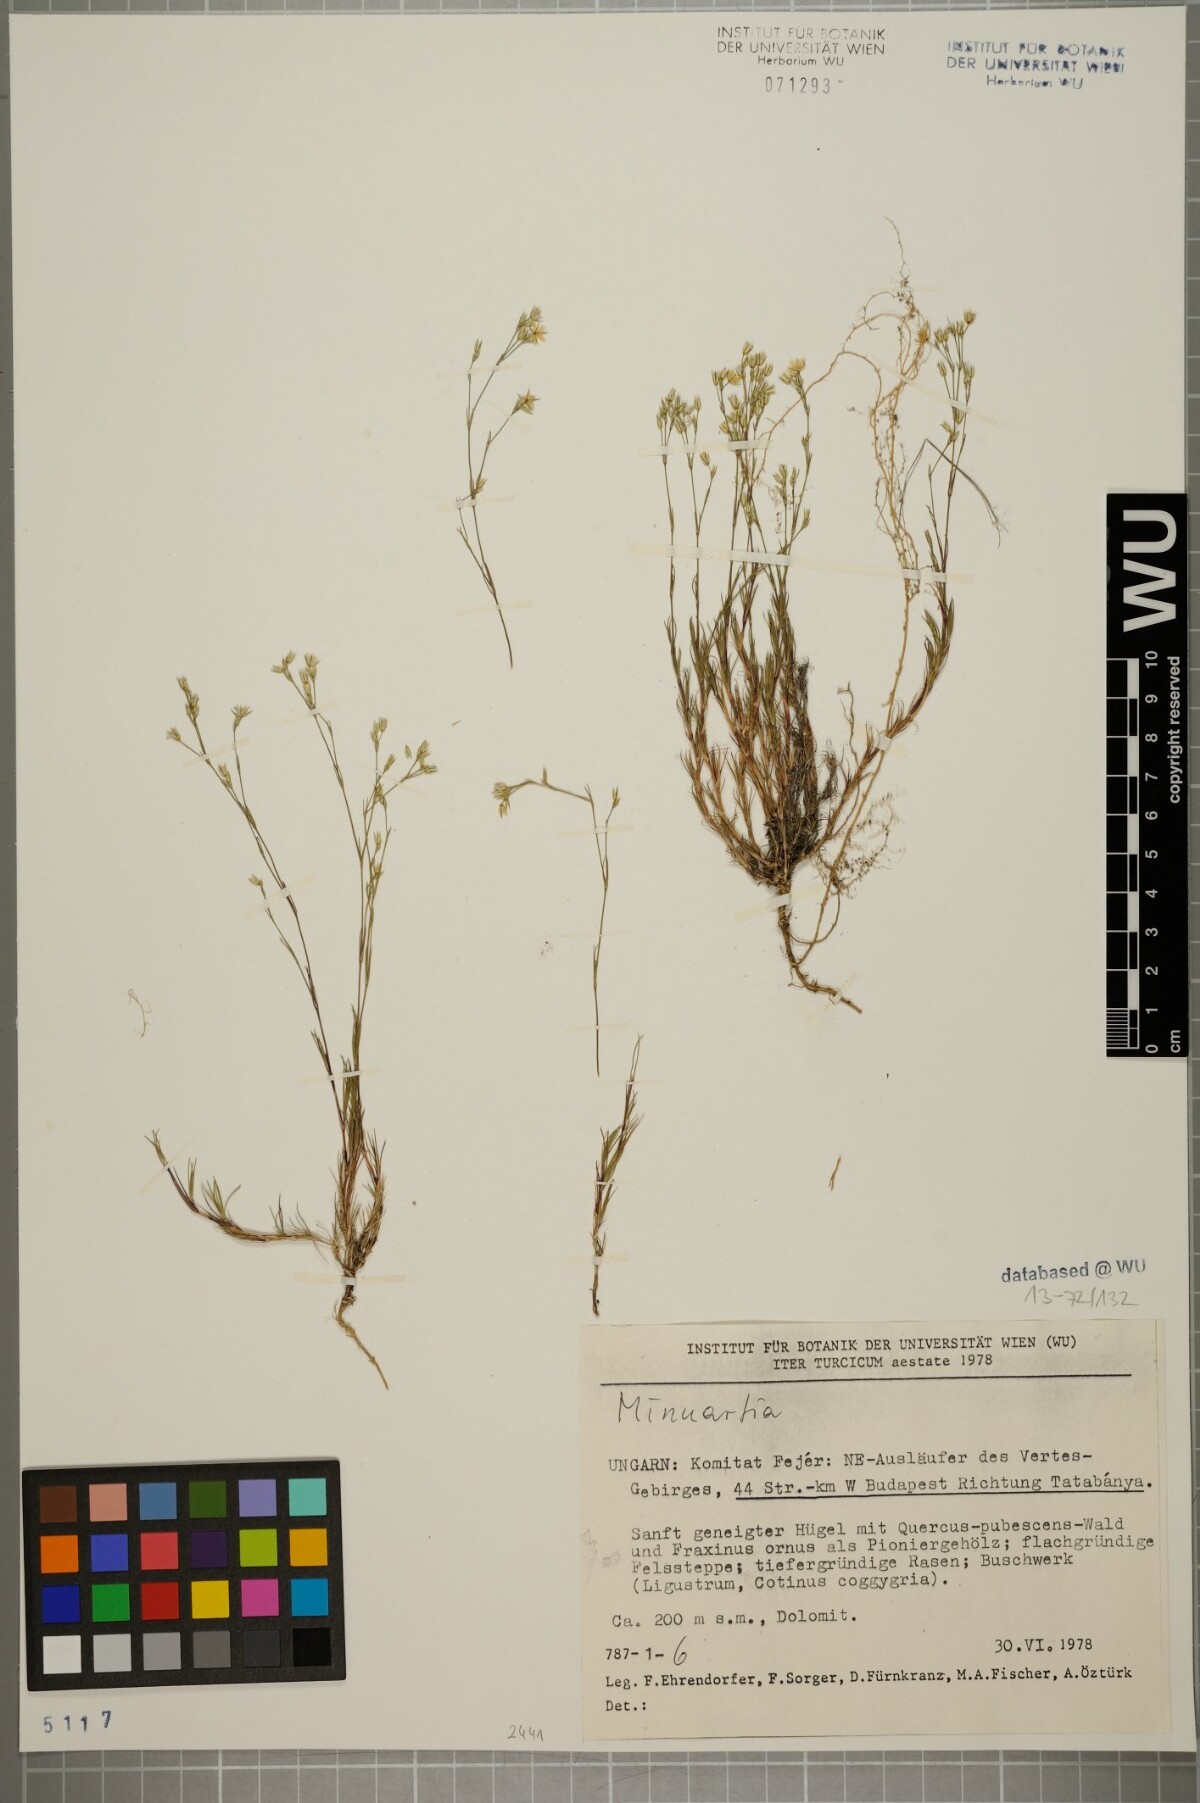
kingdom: Plantae
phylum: Tracheophyta
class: Magnoliopsida
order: Caryophyllales
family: Caryophyllaceae
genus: Minuartia
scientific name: Minuartia setacea
